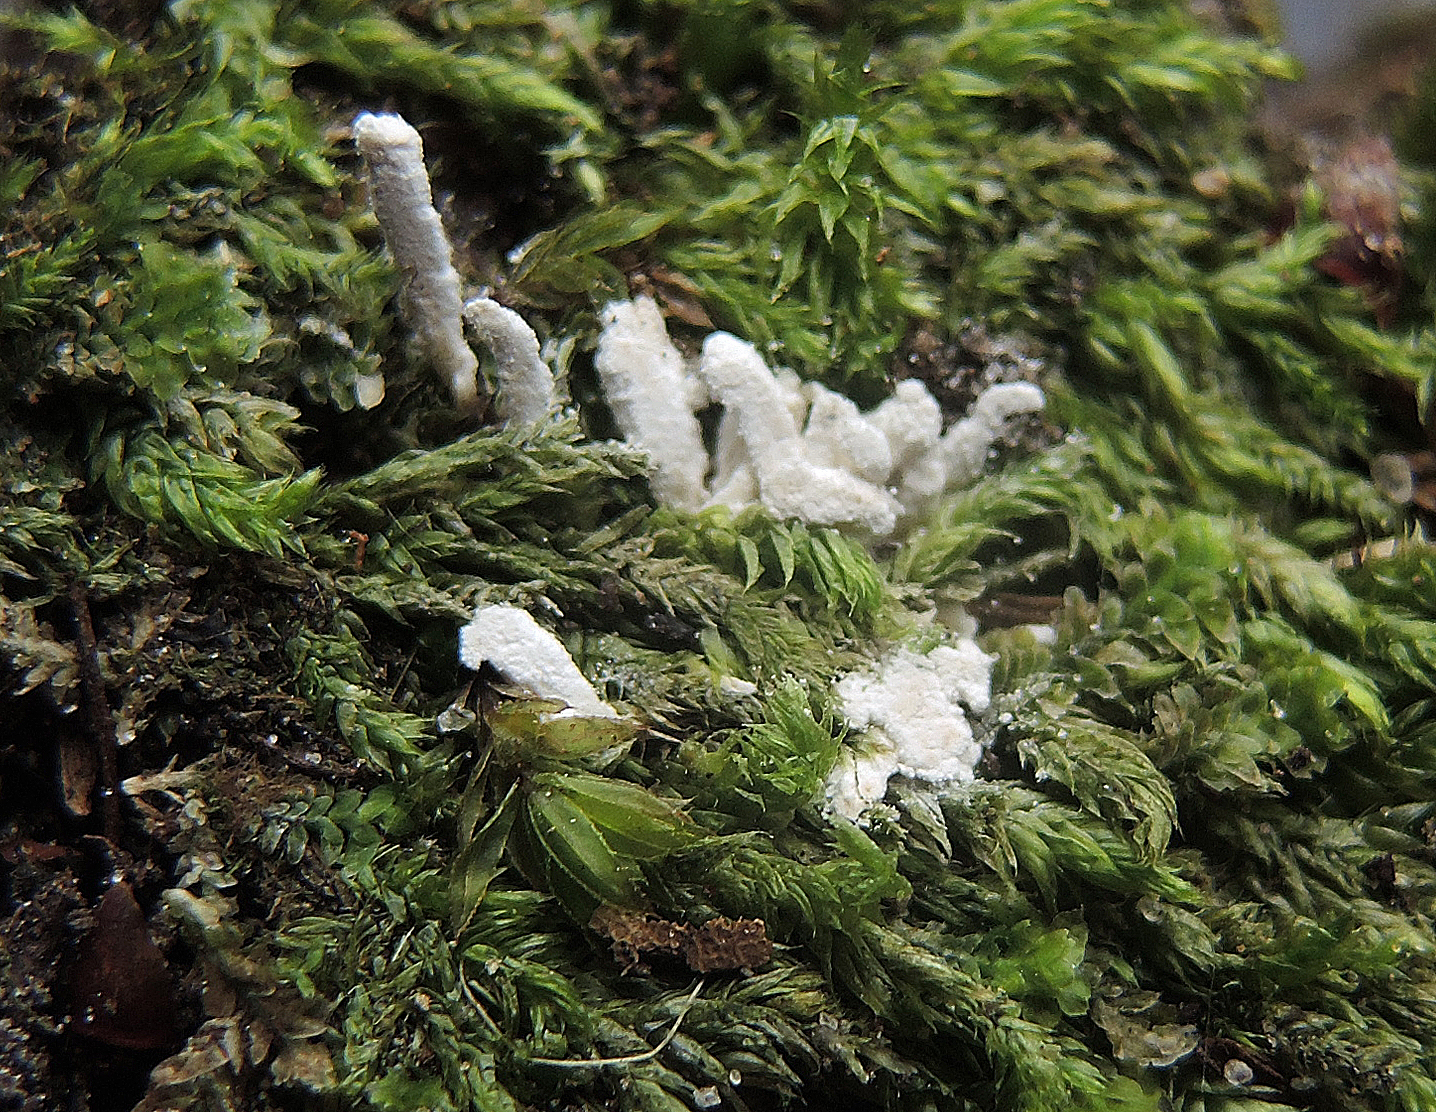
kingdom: Fungi
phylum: Ascomycota
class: Sordariomycetes
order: Hypocreales
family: Cordycipitaceae
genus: Cordyceps
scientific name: Cordyceps farinosa
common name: melet snyltekølle
